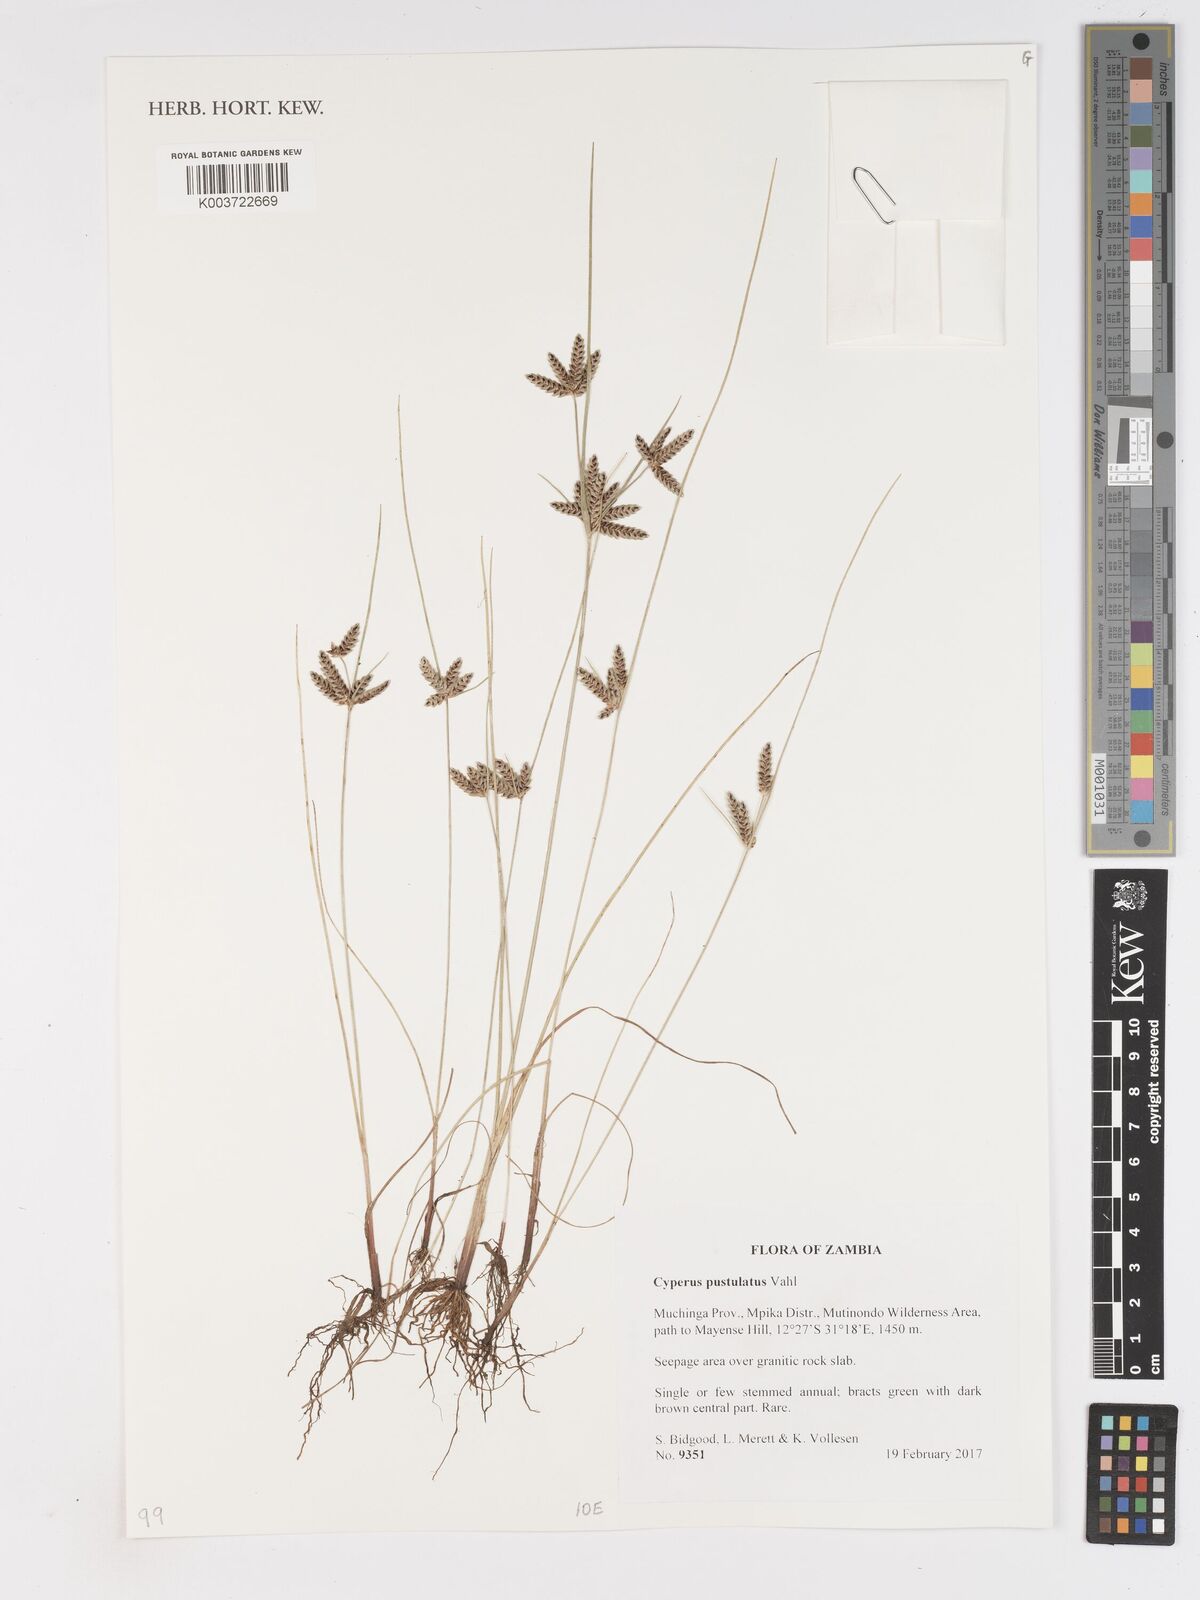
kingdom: Plantae
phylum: Tracheophyta
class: Liliopsida
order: Poales
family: Cyperaceae
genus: Cyperus
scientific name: Cyperus pustulatus
